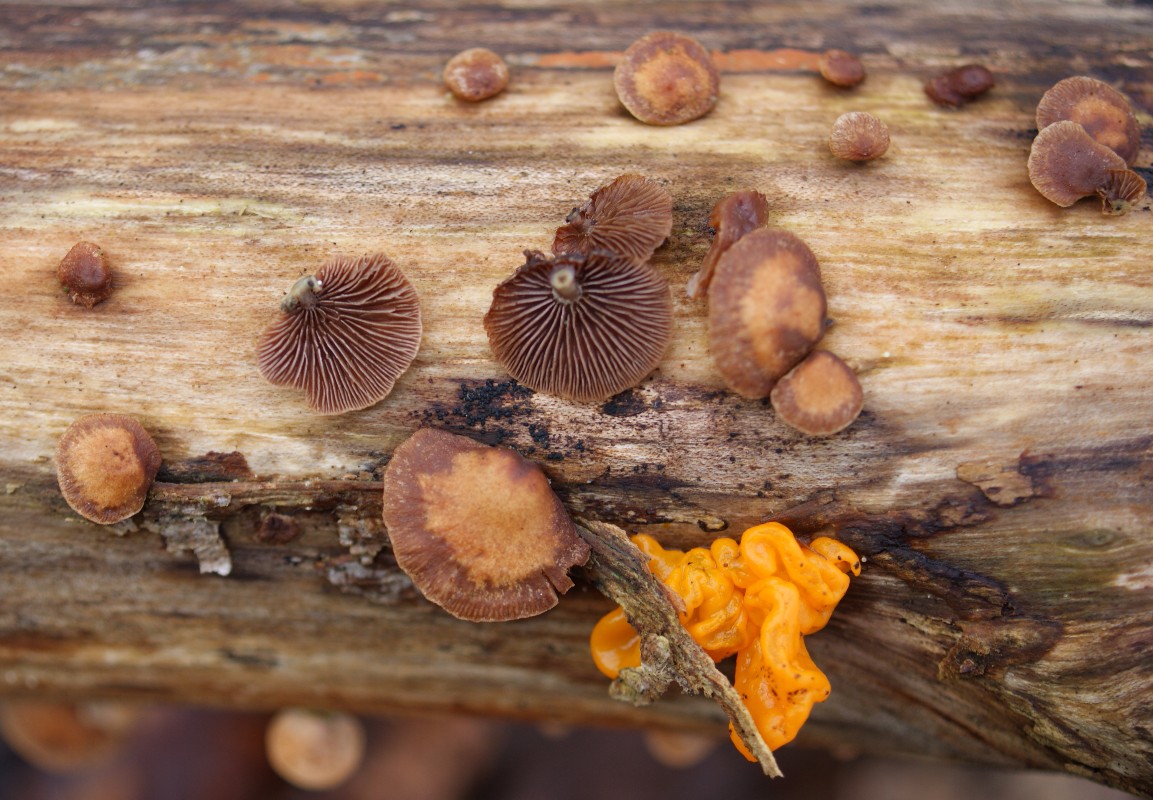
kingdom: Fungi
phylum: Basidiomycota
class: Agaricomycetes
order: Agaricales
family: Strophariaceae
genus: Deconica
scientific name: Deconica horizontalis
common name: ved-stråhat
